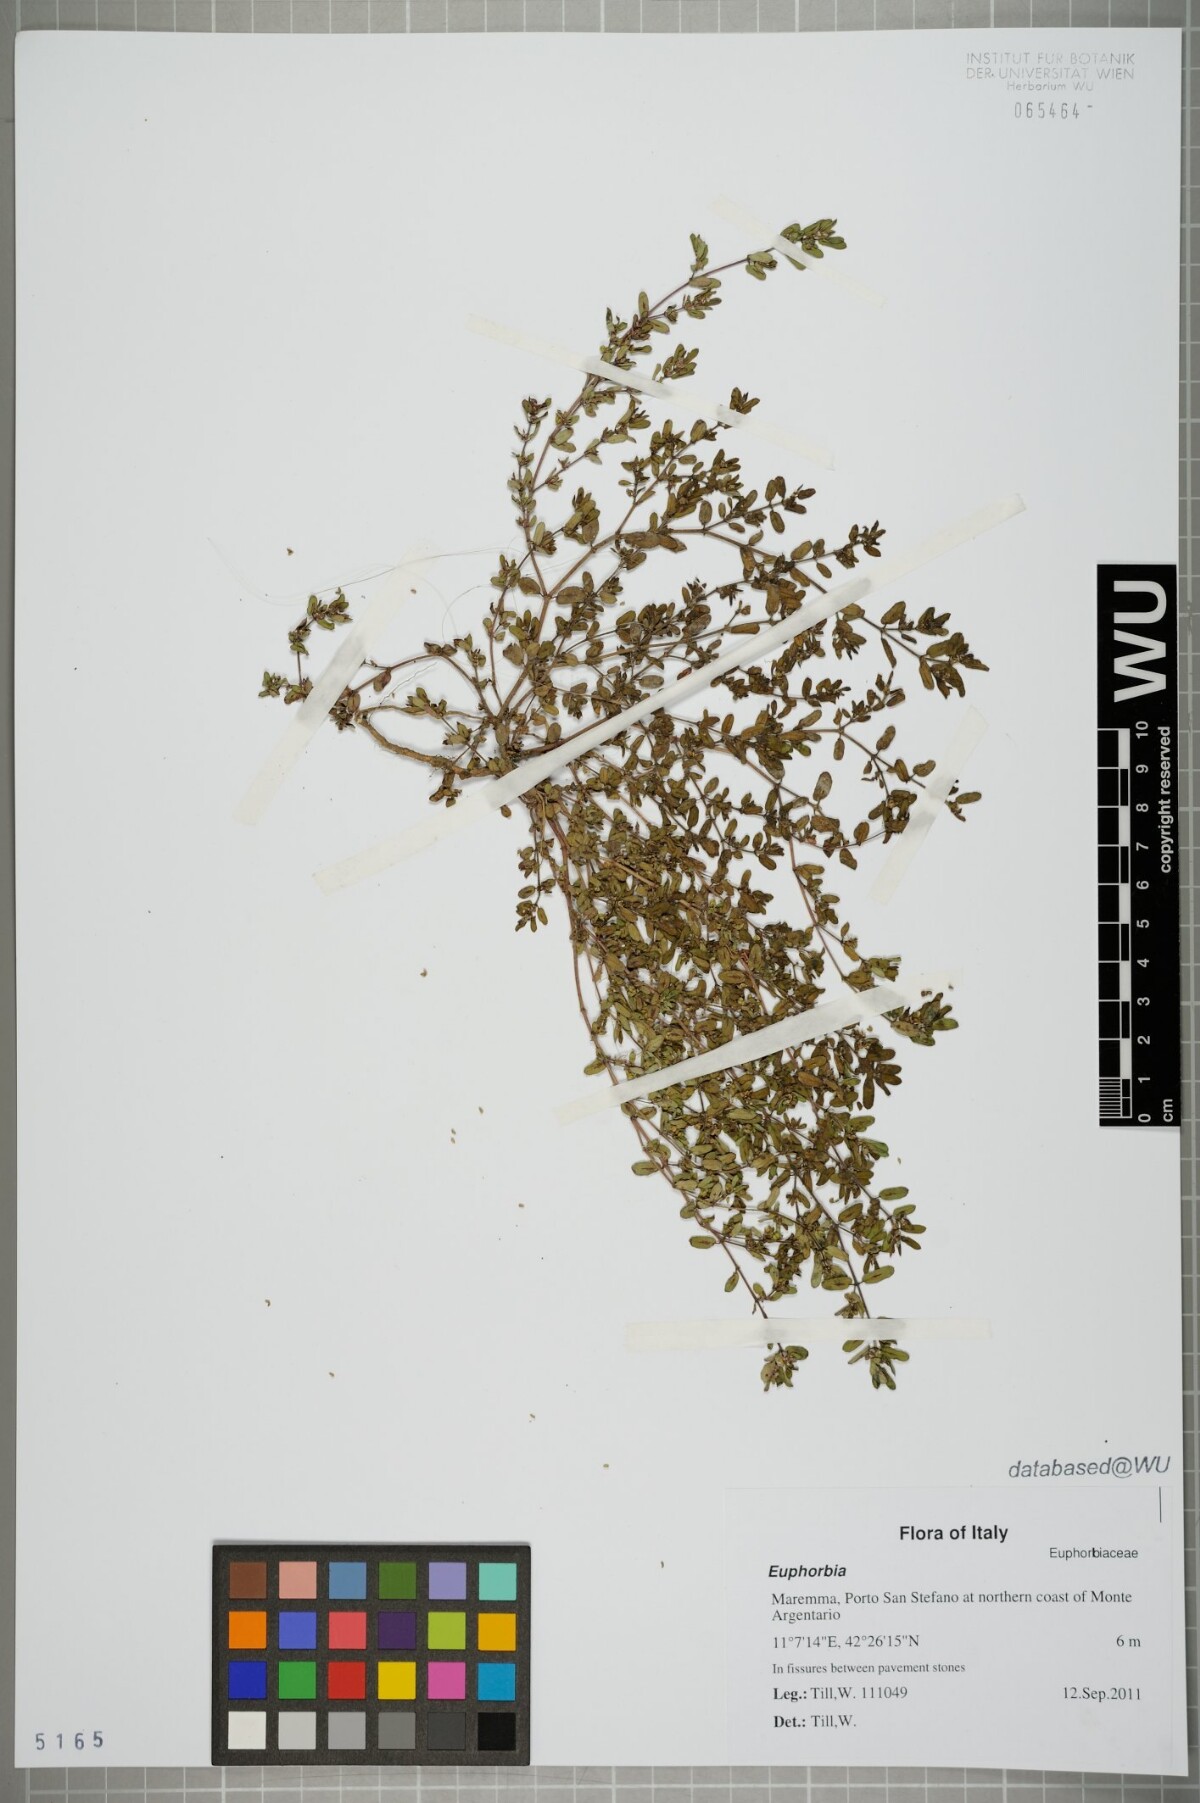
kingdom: Plantae
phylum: Tracheophyta
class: Magnoliopsida
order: Malpighiales
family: Euphorbiaceae
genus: Euphorbia
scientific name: Euphorbia
